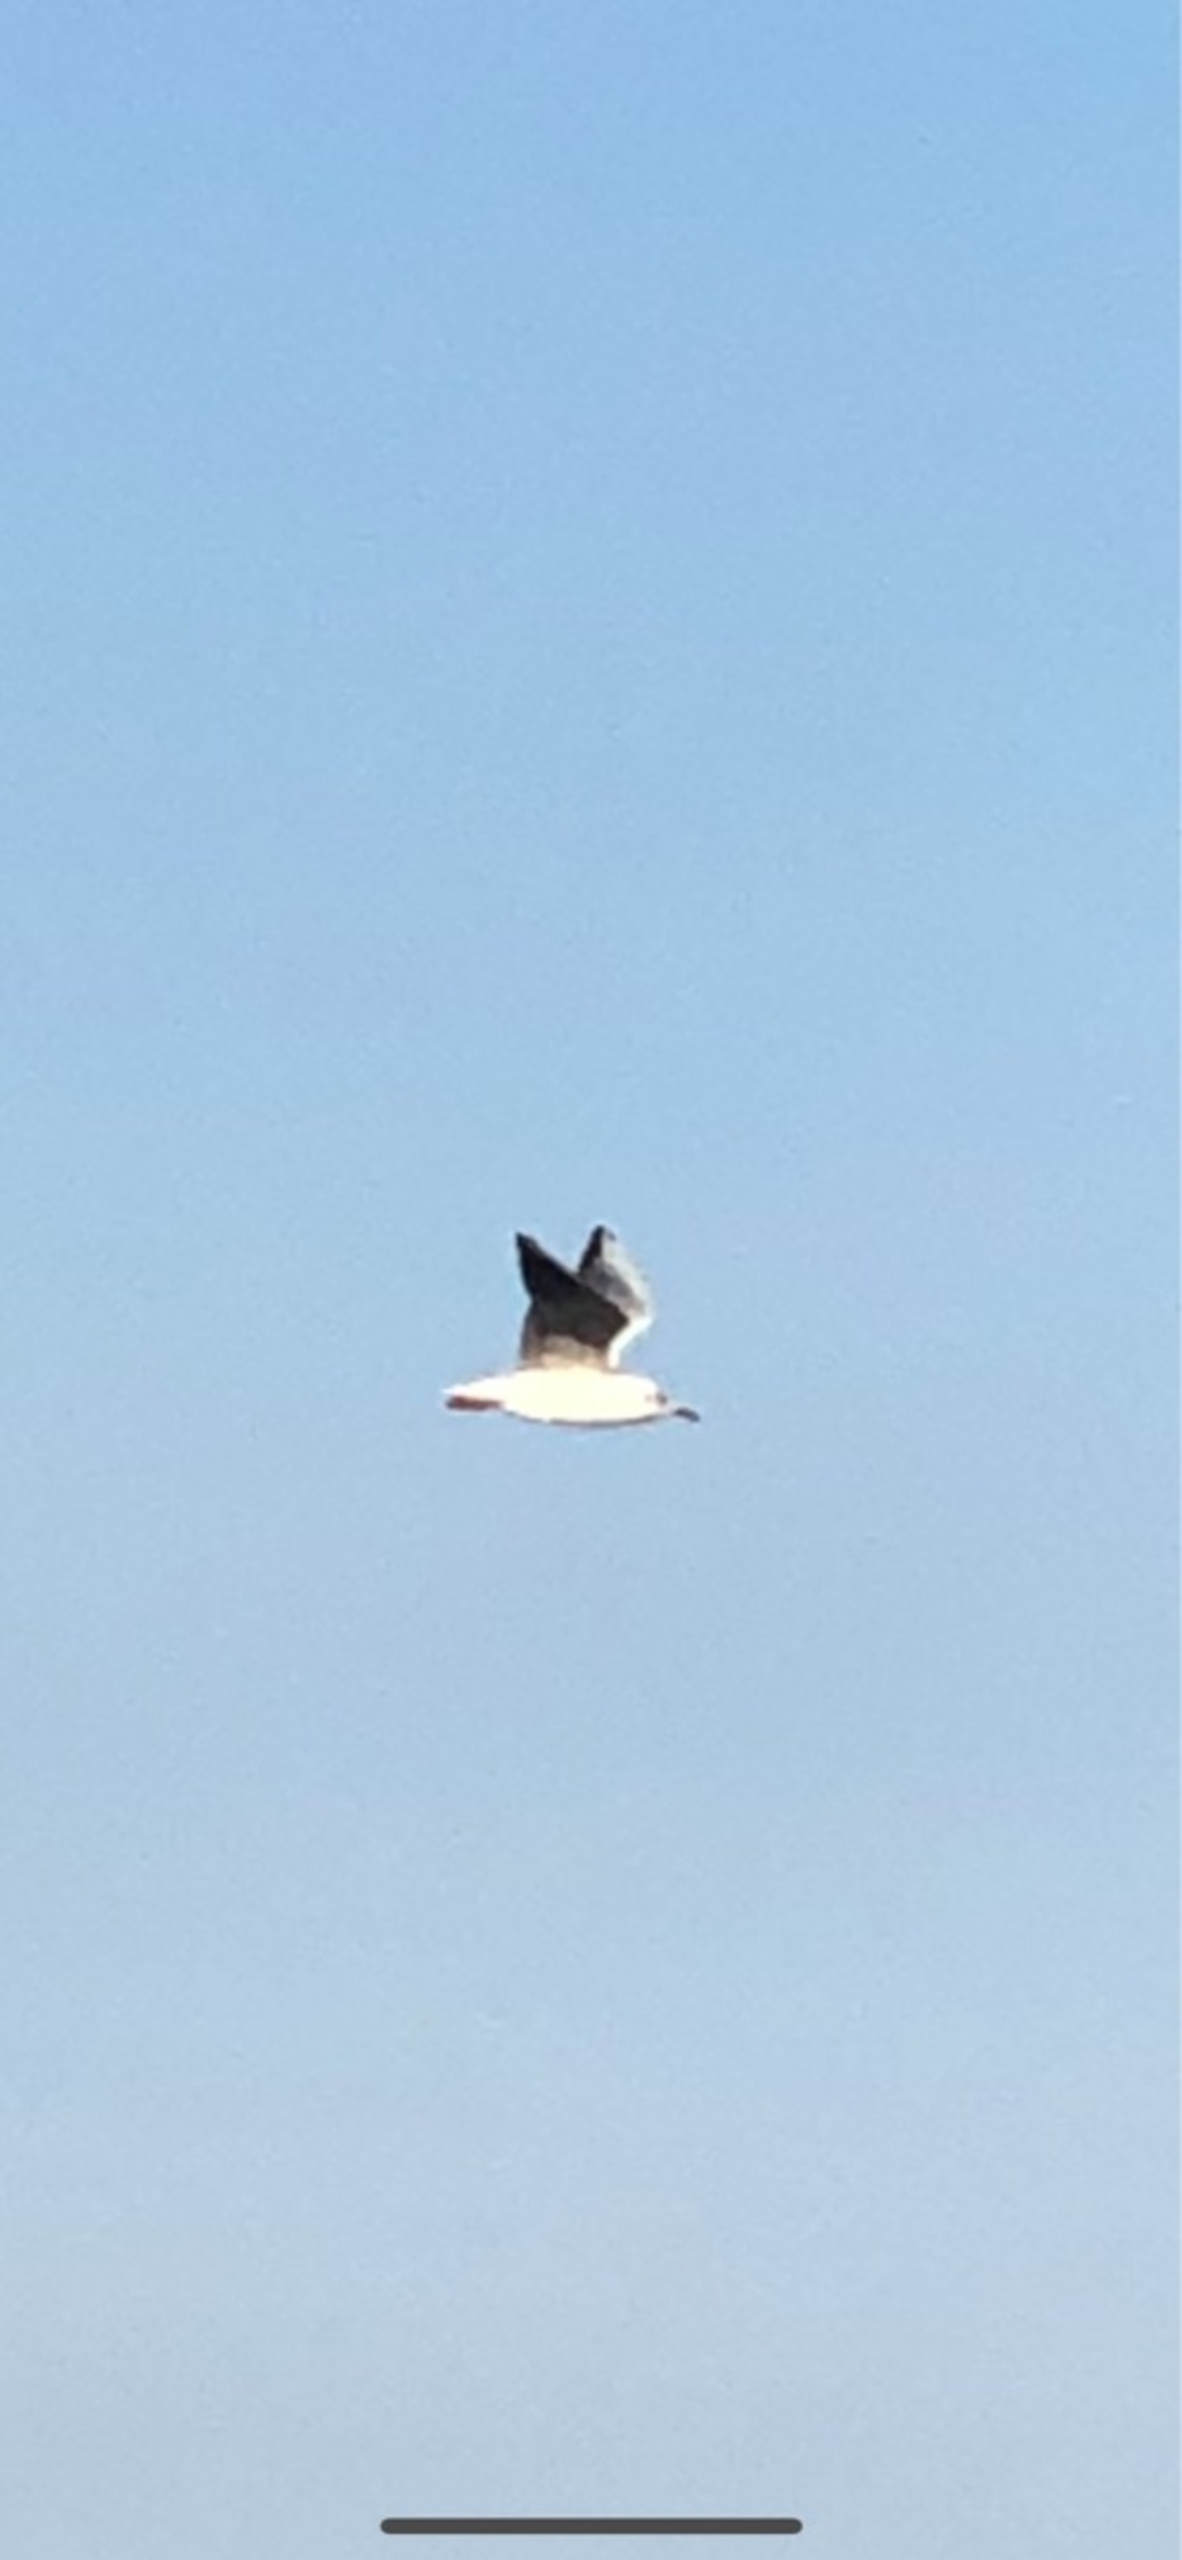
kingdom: Animalia
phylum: Chordata
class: Aves
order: Charadriiformes
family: Laridae
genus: Chroicocephalus
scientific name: Chroicocephalus ridibundus
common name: Hættemåge
